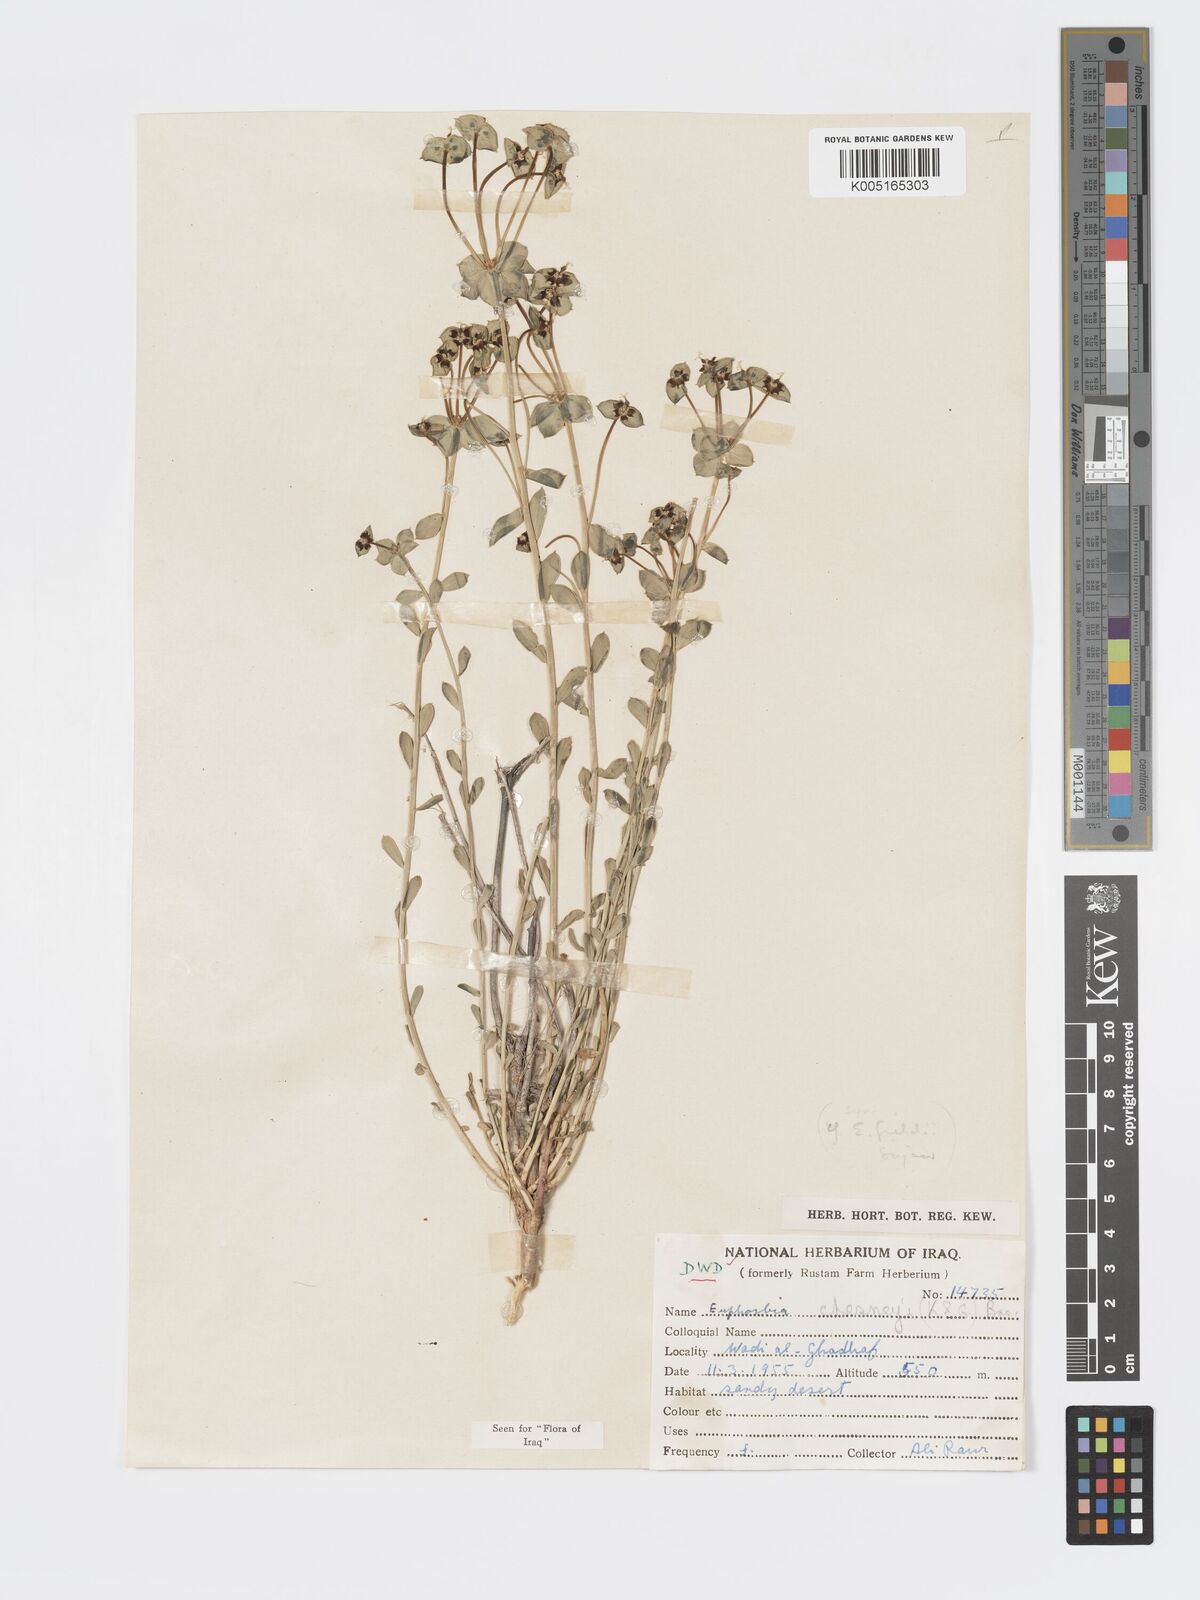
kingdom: Plantae
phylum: Tracheophyta
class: Magnoliopsida
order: Malpighiales
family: Euphorbiaceae
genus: Euphorbia
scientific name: Euphorbia
